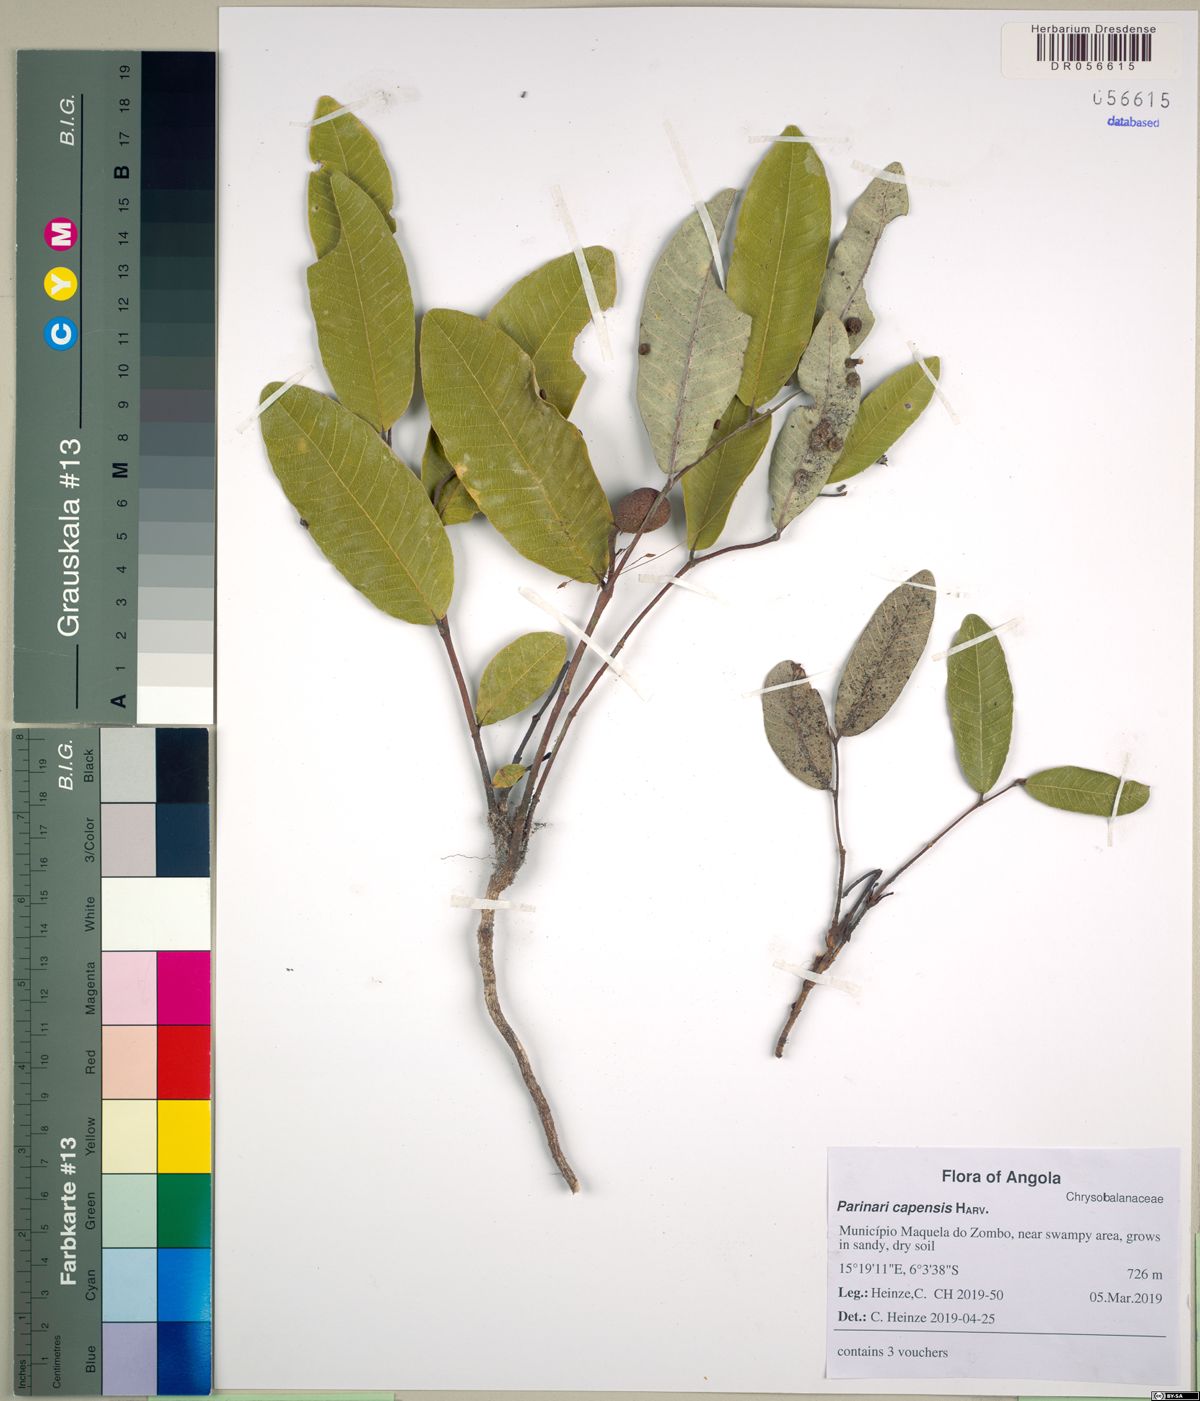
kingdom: Plantae
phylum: Tracheophyta
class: Magnoliopsida
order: Malpighiales
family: Chrysobalanaceae
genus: Parinari
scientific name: Parinari capensis
